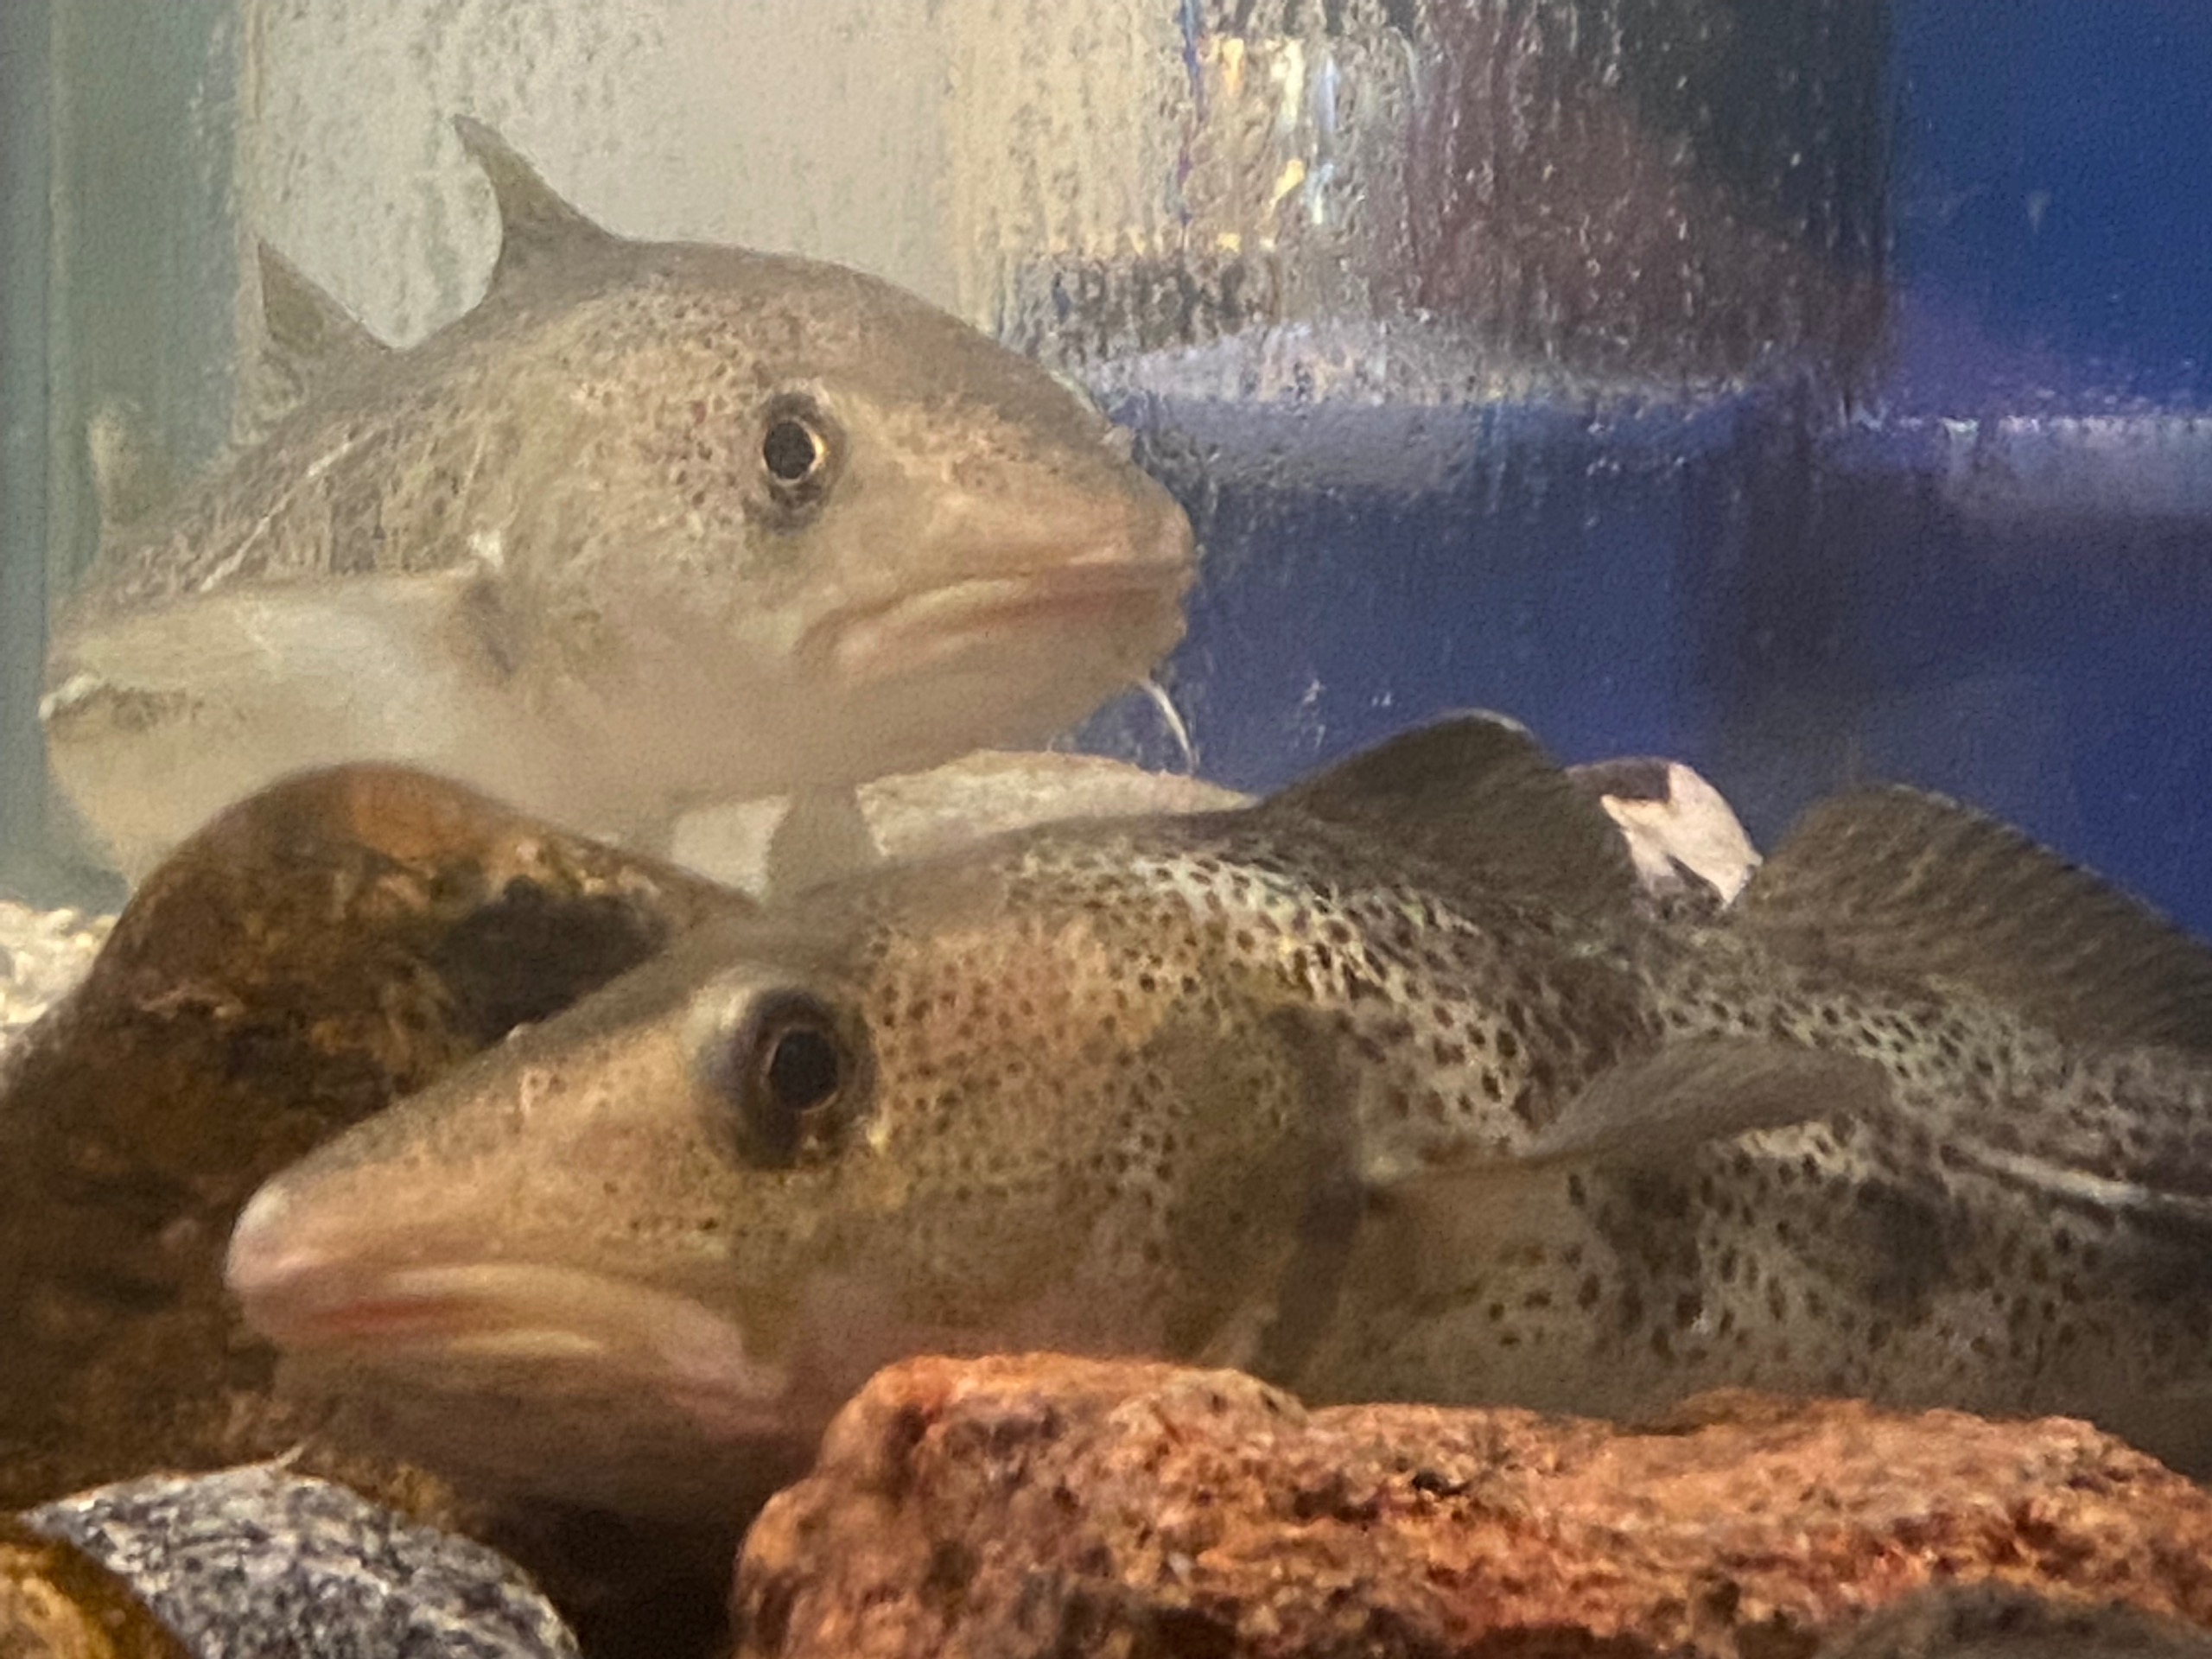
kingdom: Animalia
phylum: Chordata
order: Gadiformes
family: Gadidae
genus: Gadus
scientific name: Gadus morhua
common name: Torsk
